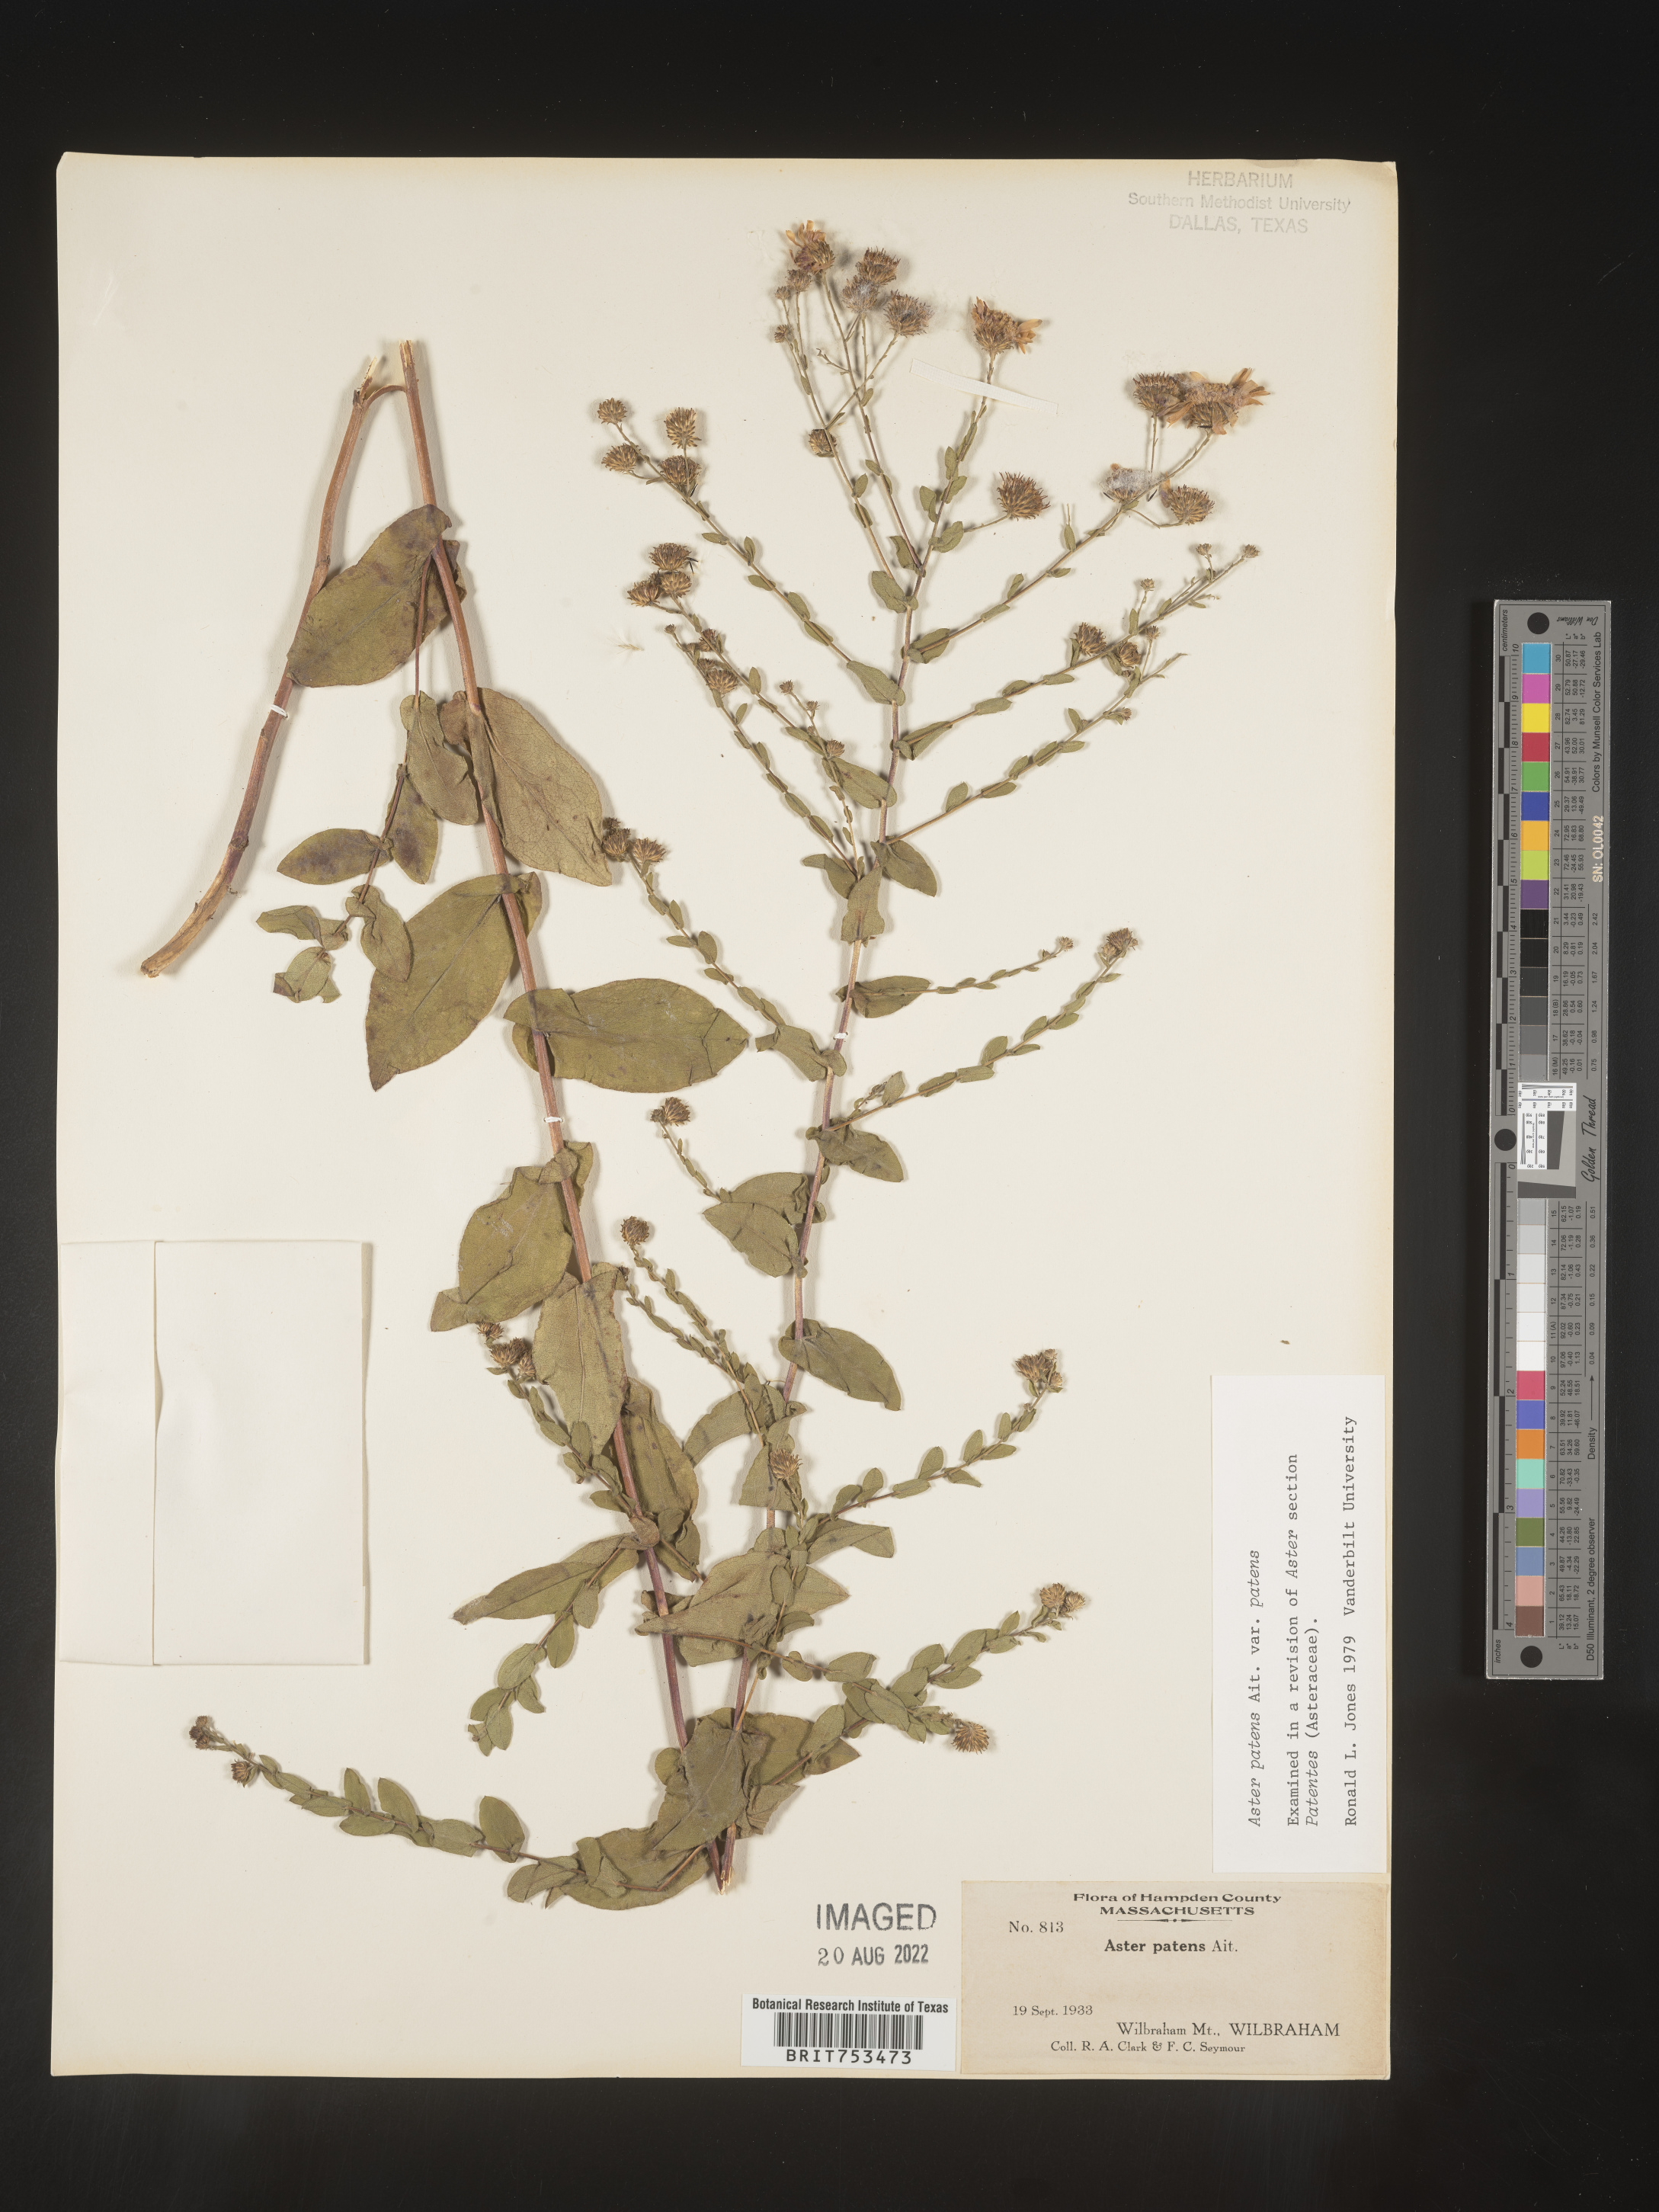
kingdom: Plantae
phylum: Tracheophyta
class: Magnoliopsida
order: Asterales
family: Asteraceae
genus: Symphyotrichum
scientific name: Symphyotrichum patens
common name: Late purple aster
